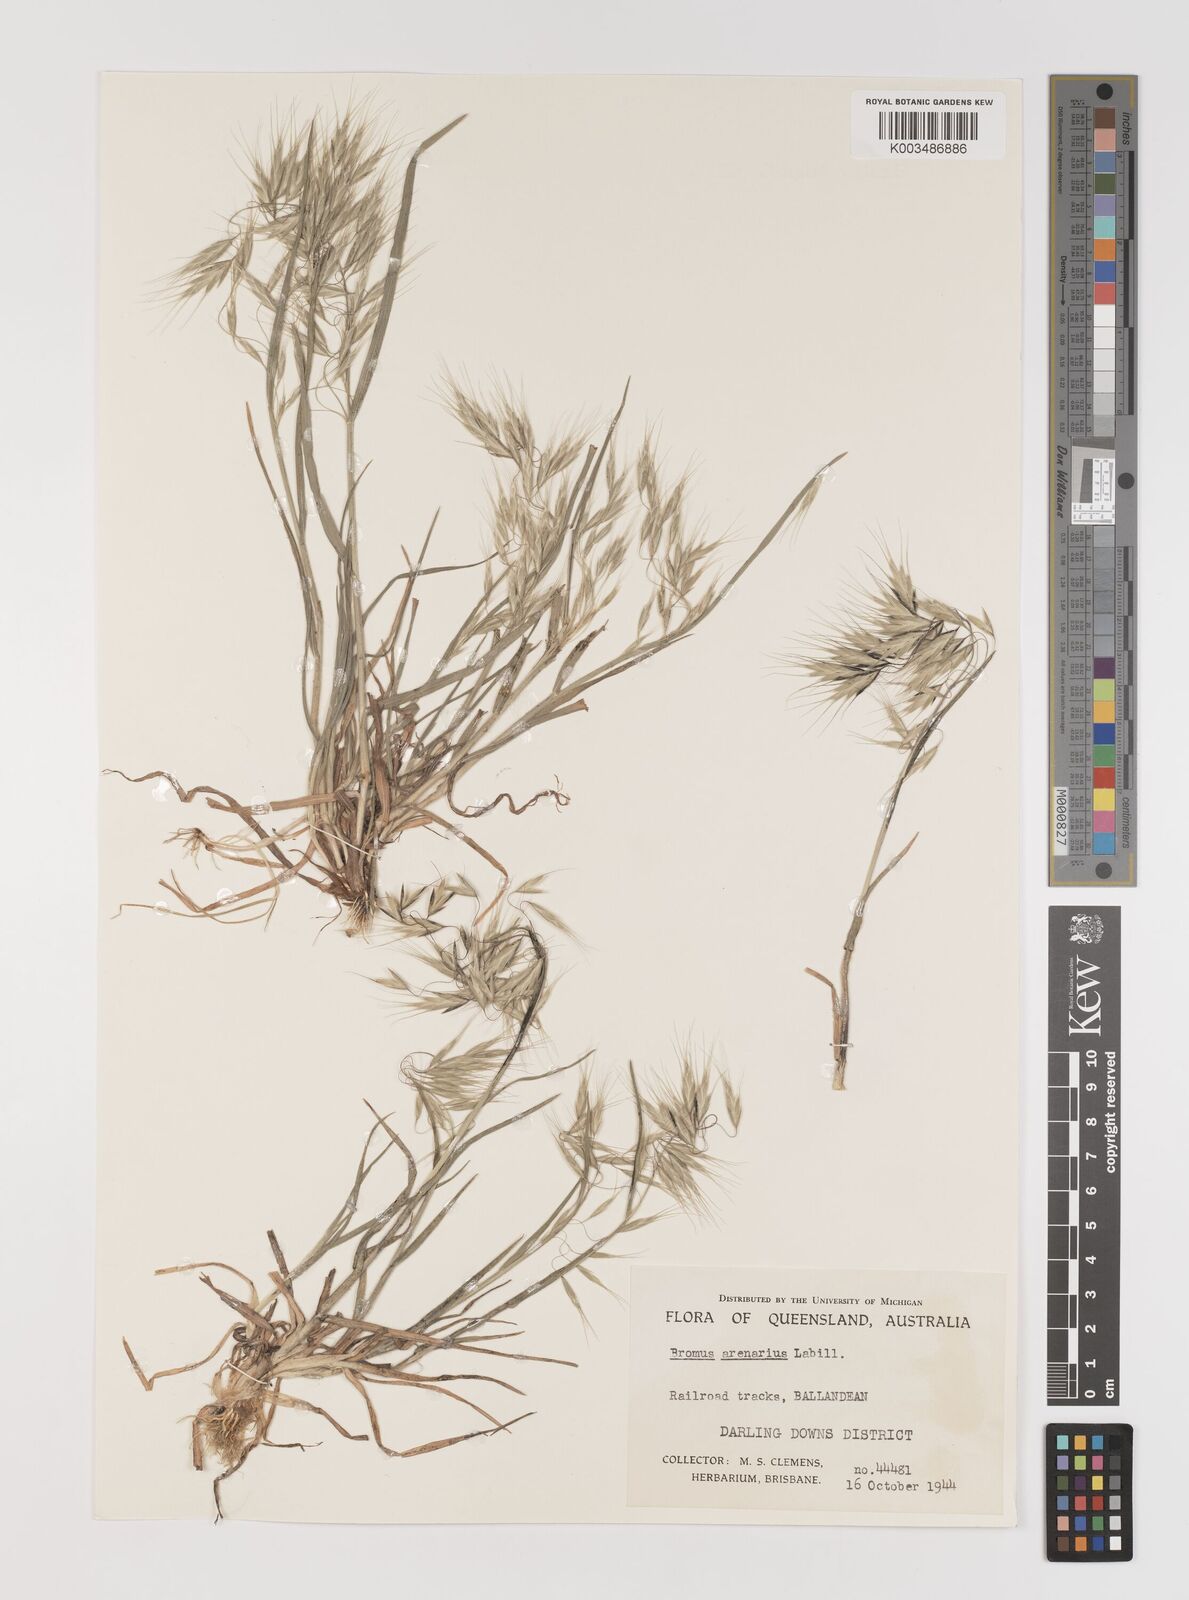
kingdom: Plantae
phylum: Tracheophyta
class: Liliopsida
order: Poales
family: Poaceae
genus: Bromus
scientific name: Bromus arenarius
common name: Australian brome
